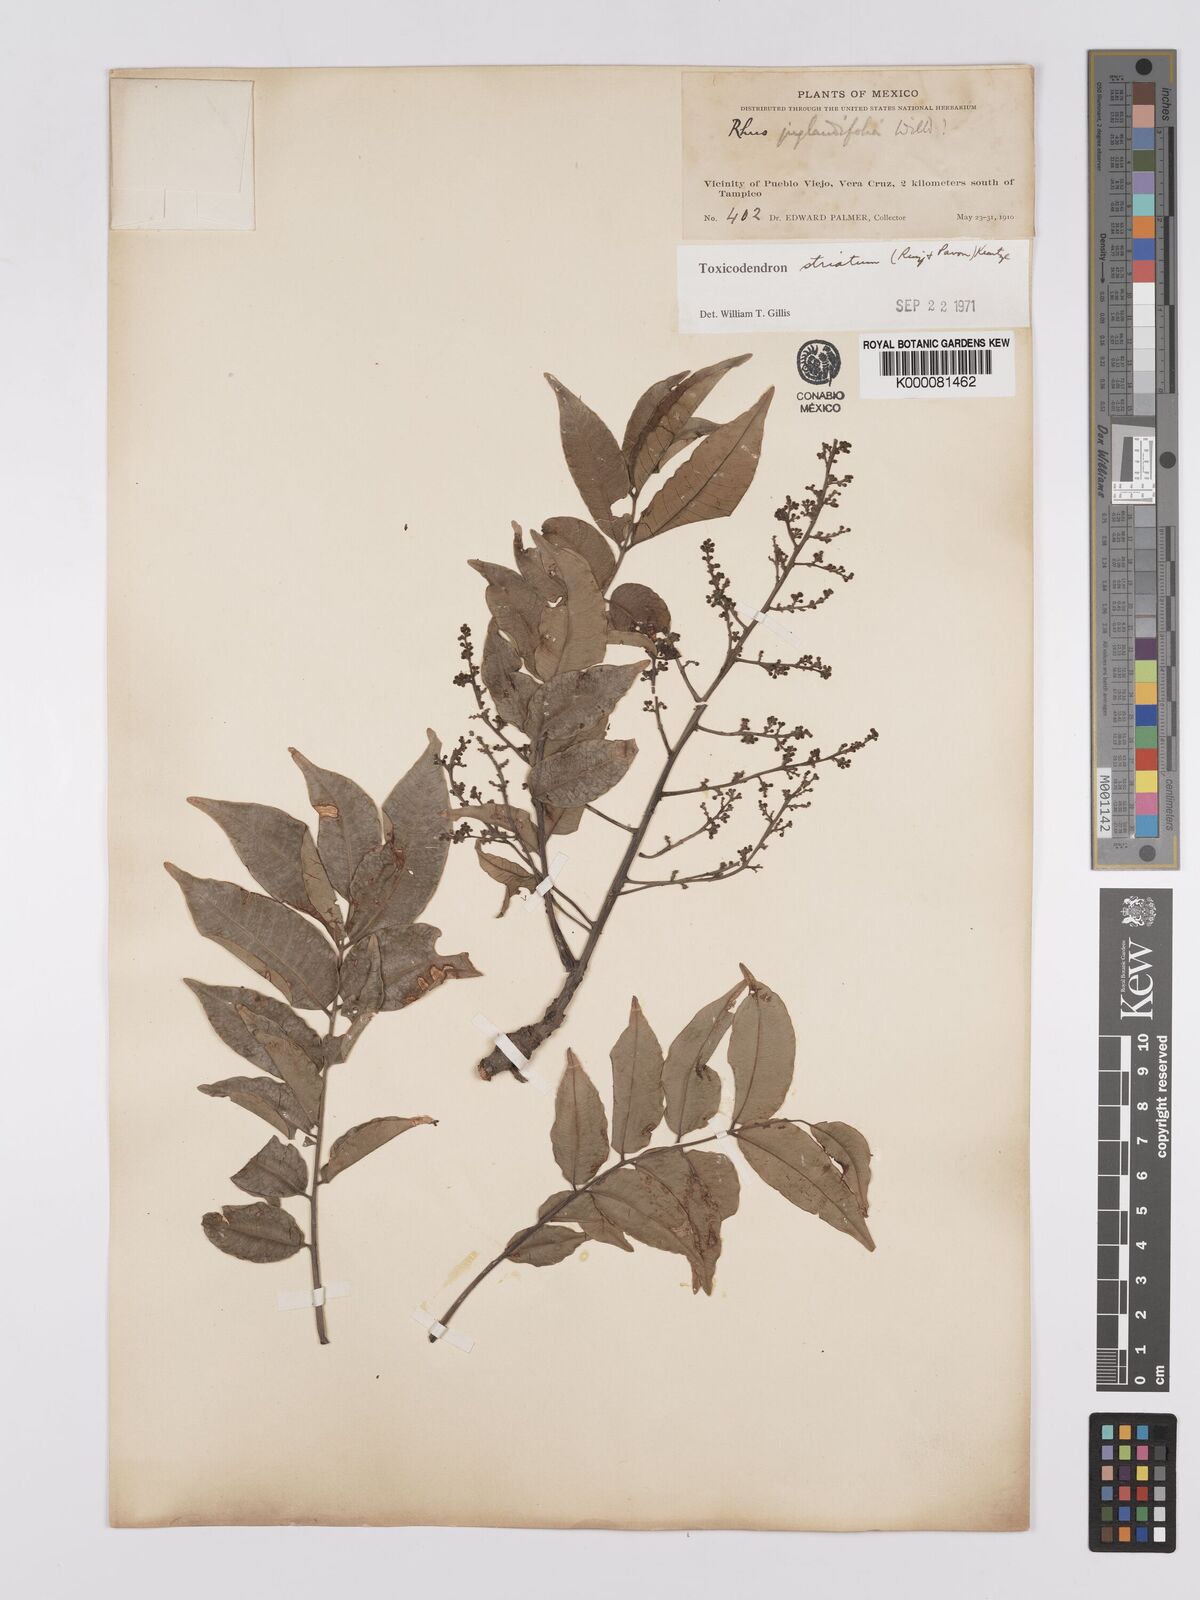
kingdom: Plantae
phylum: Tracheophyta
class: Magnoliopsida
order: Sapindales
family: Anacardiaceae
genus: Toxicodendron
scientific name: Toxicodendron striatum
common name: Sumac
